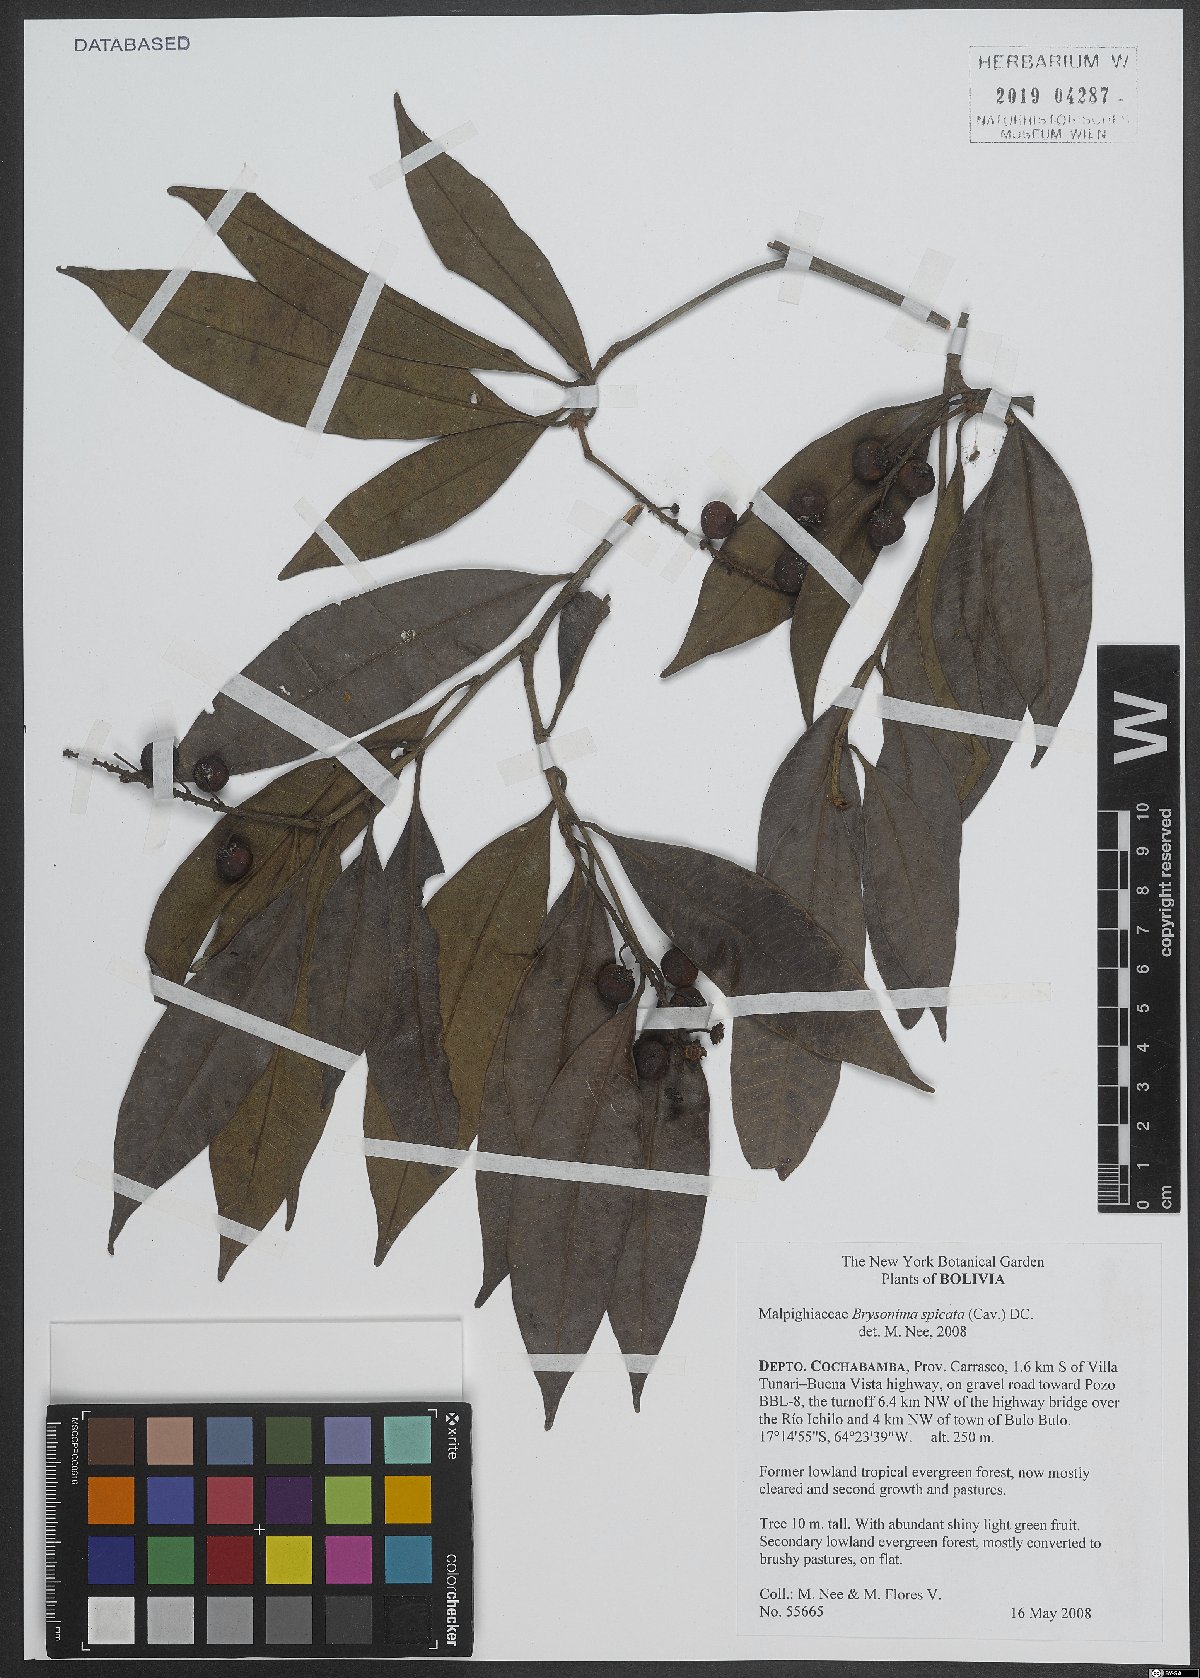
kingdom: Plantae
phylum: Tracheophyta
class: Magnoliopsida
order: Malpighiales
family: Malpighiaceae
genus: Heteropterys
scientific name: Heteropterys platyptera
